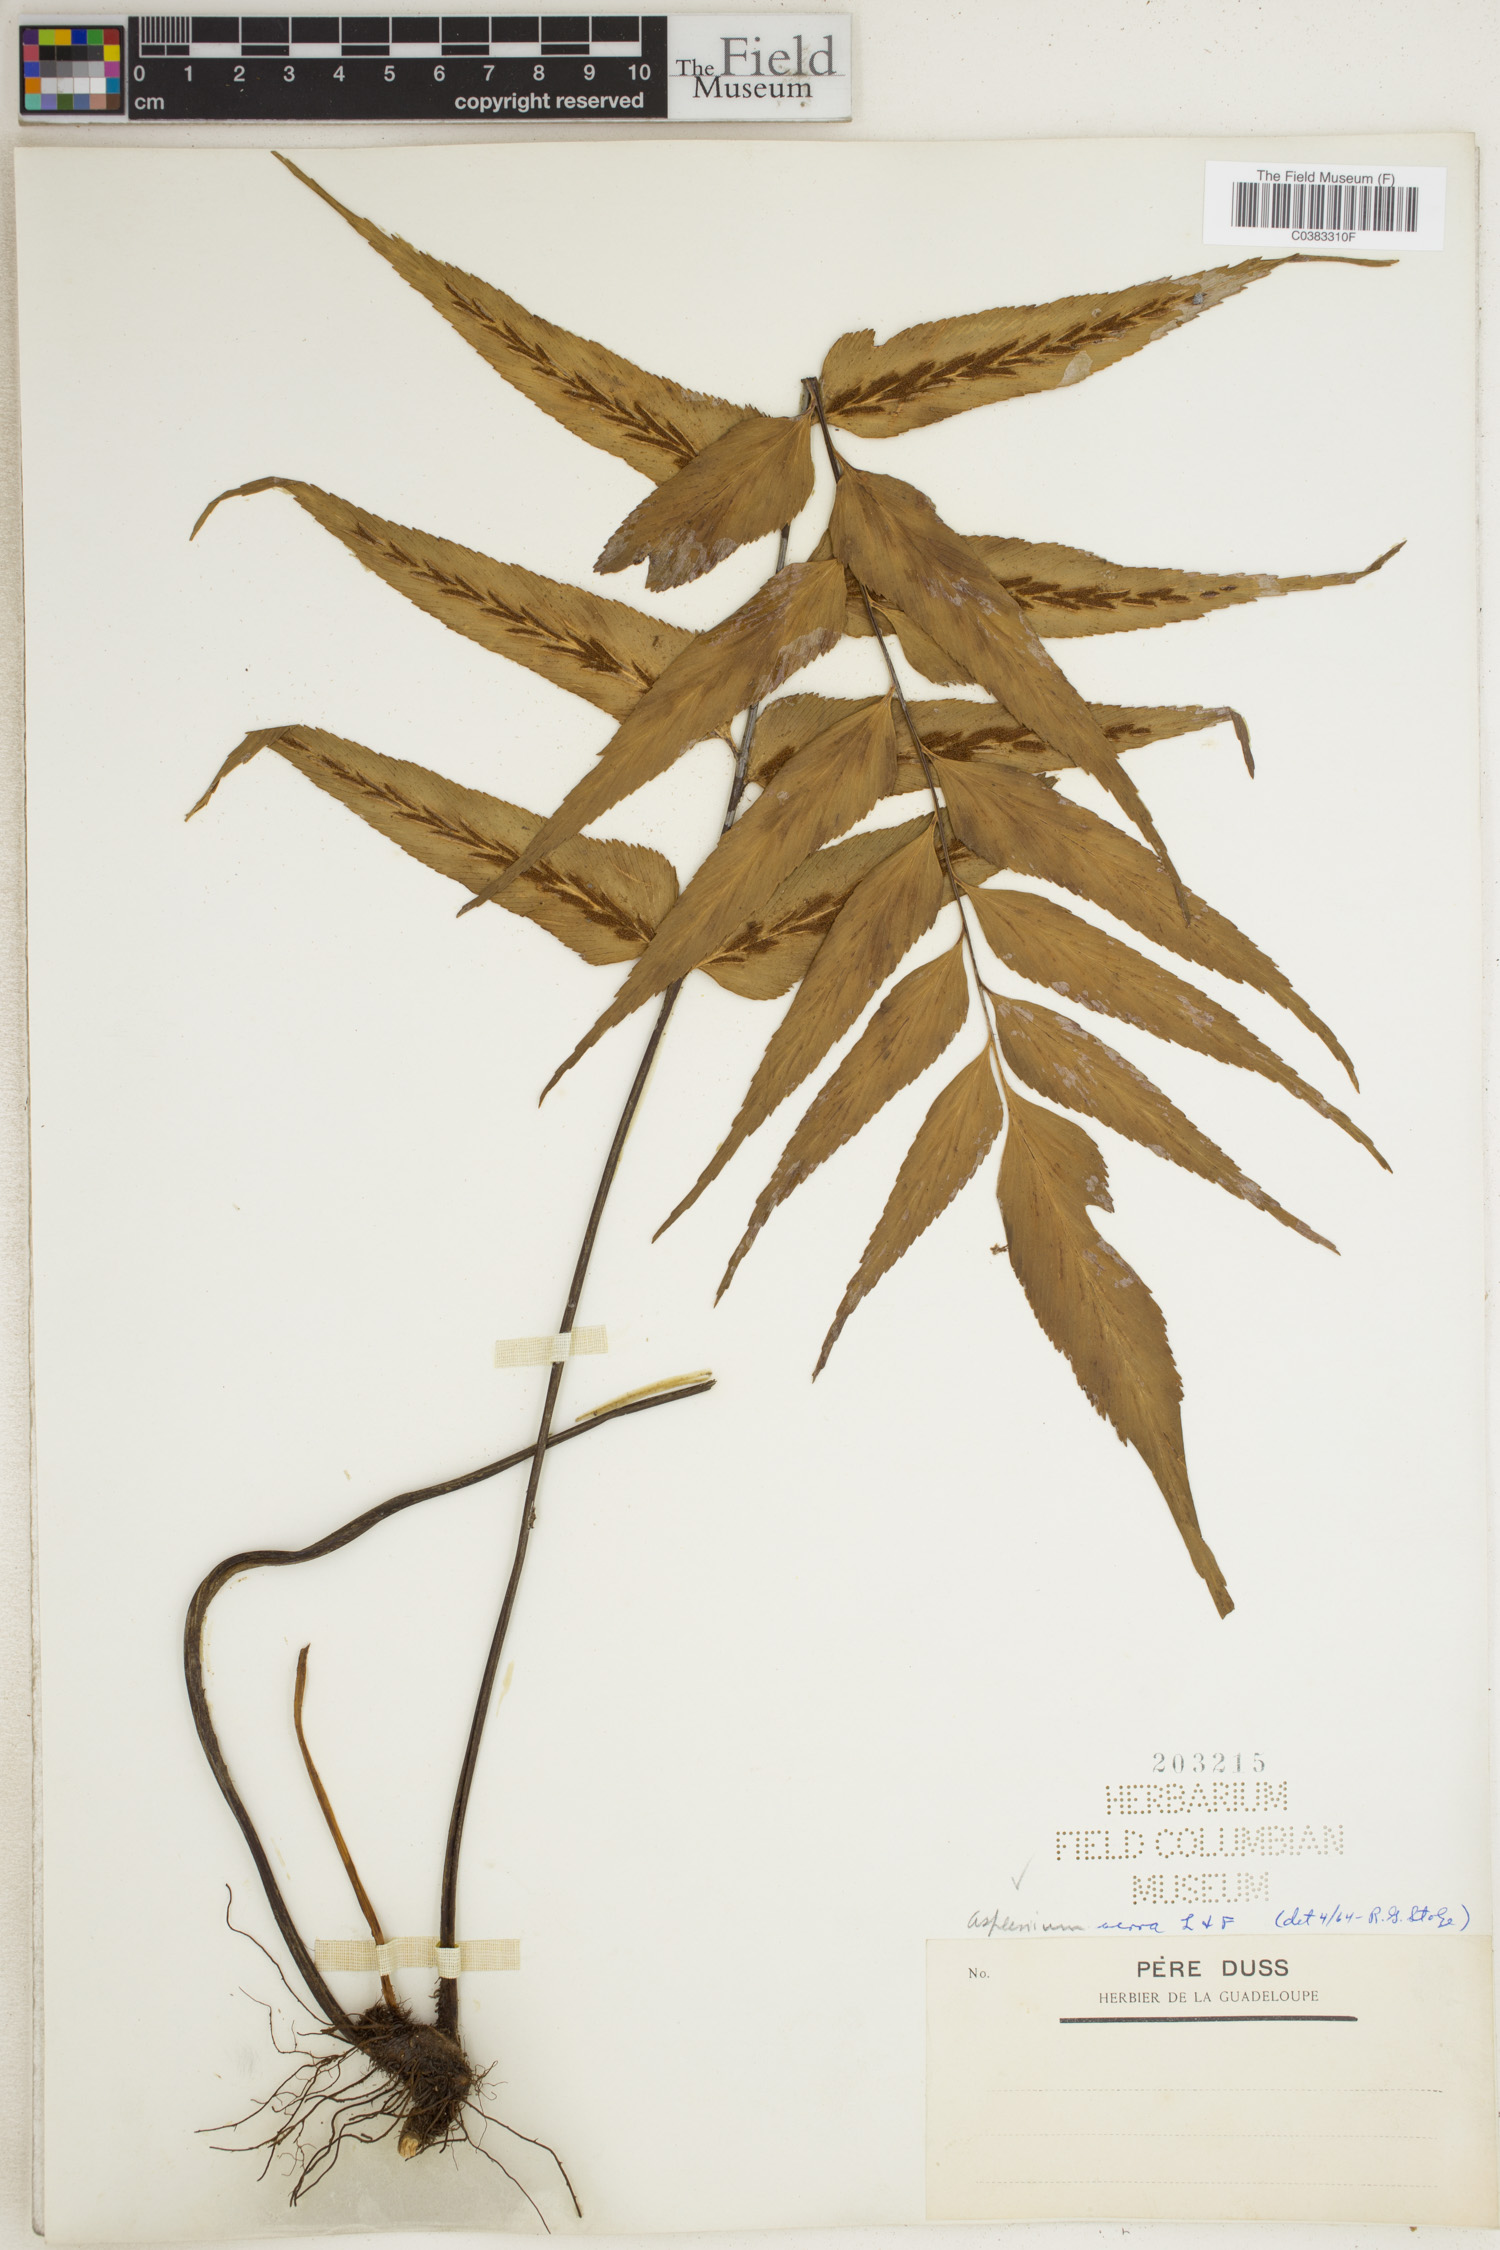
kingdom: Plantae
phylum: Tracheophyta
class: Polypodiopsida
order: Polypodiales
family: Aspleniaceae
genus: Asplenium
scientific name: Asplenium serra
